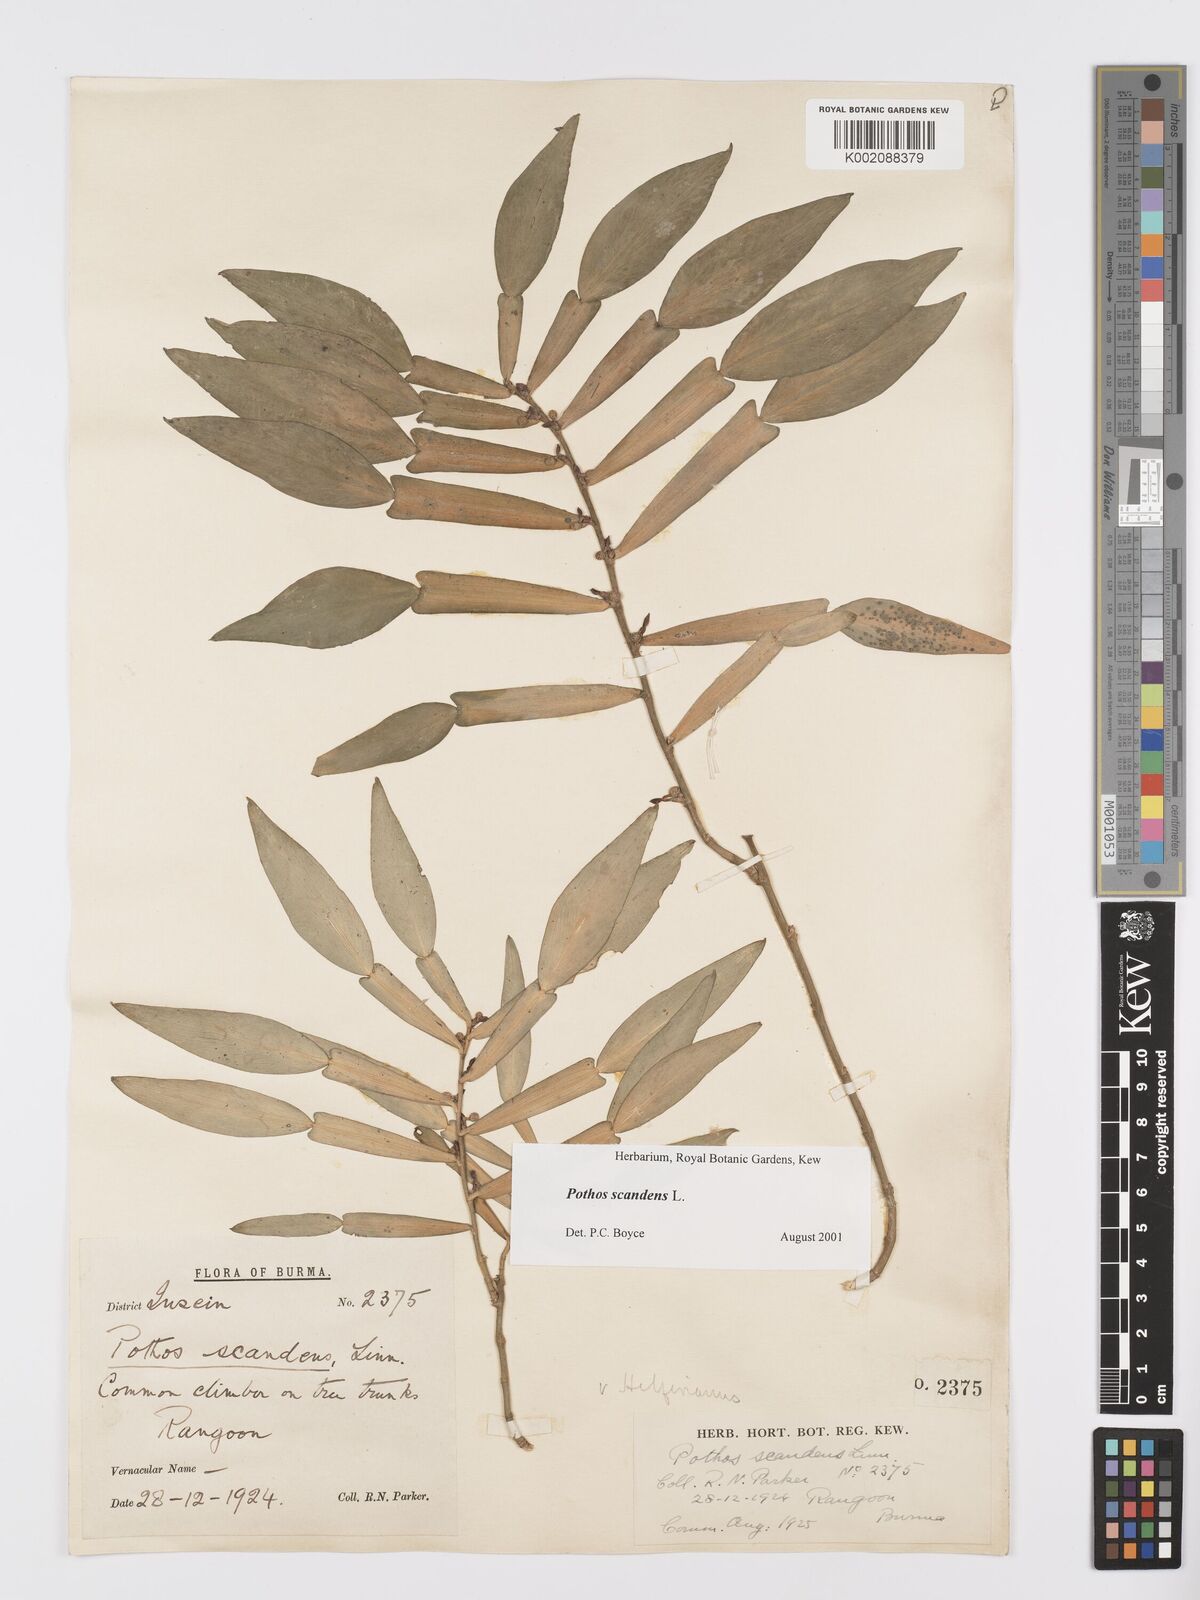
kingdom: Plantae
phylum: Tracheophyta
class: Liliopsida
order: Alismatales
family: Araceae
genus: Pothos
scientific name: Pothos scandens
